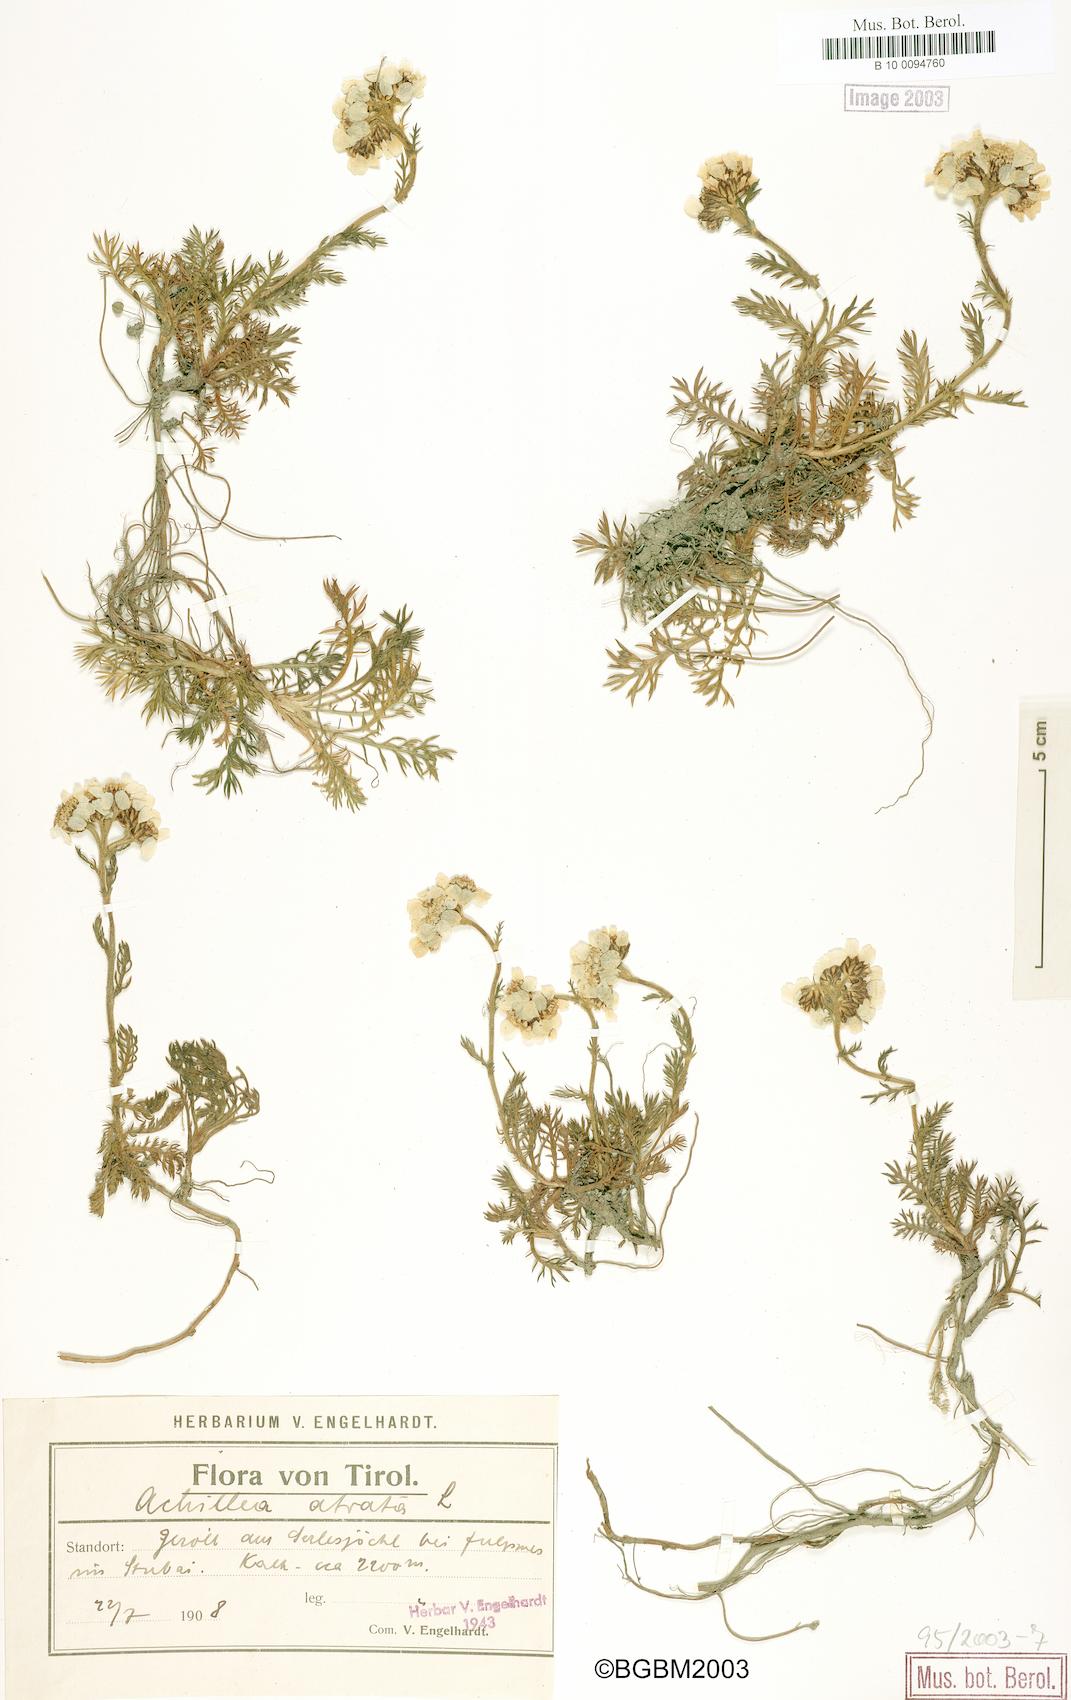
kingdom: Plantae
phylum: Tracheophyta
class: Magnoliopsida
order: Asterales
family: Asteraceae
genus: Achillea
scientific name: Achillea atrata
